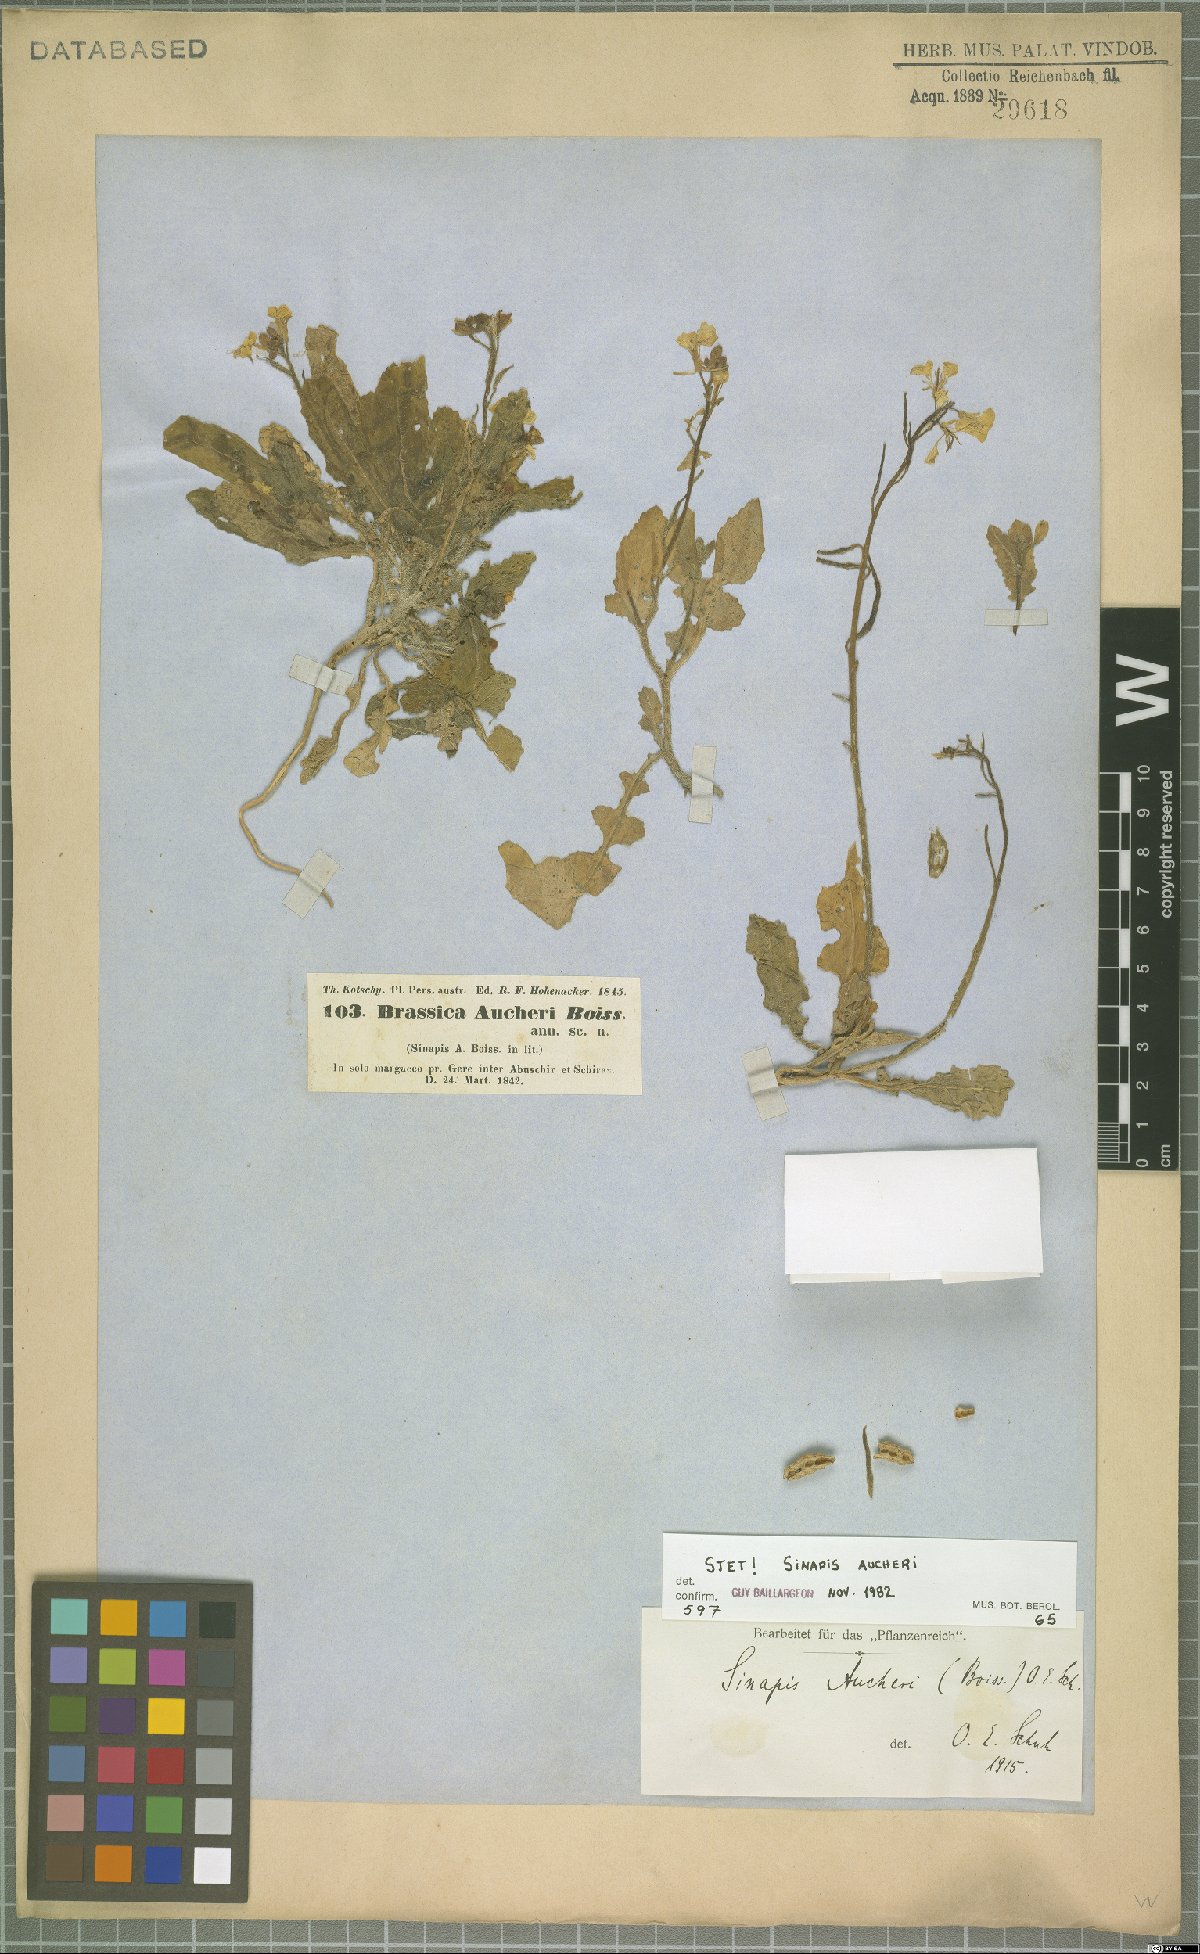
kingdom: Plantae
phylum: Tracheophyta
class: Magnoliopsida
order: Brassicales
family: Brassicaceae
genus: Brassica
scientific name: Brassica aucheri
